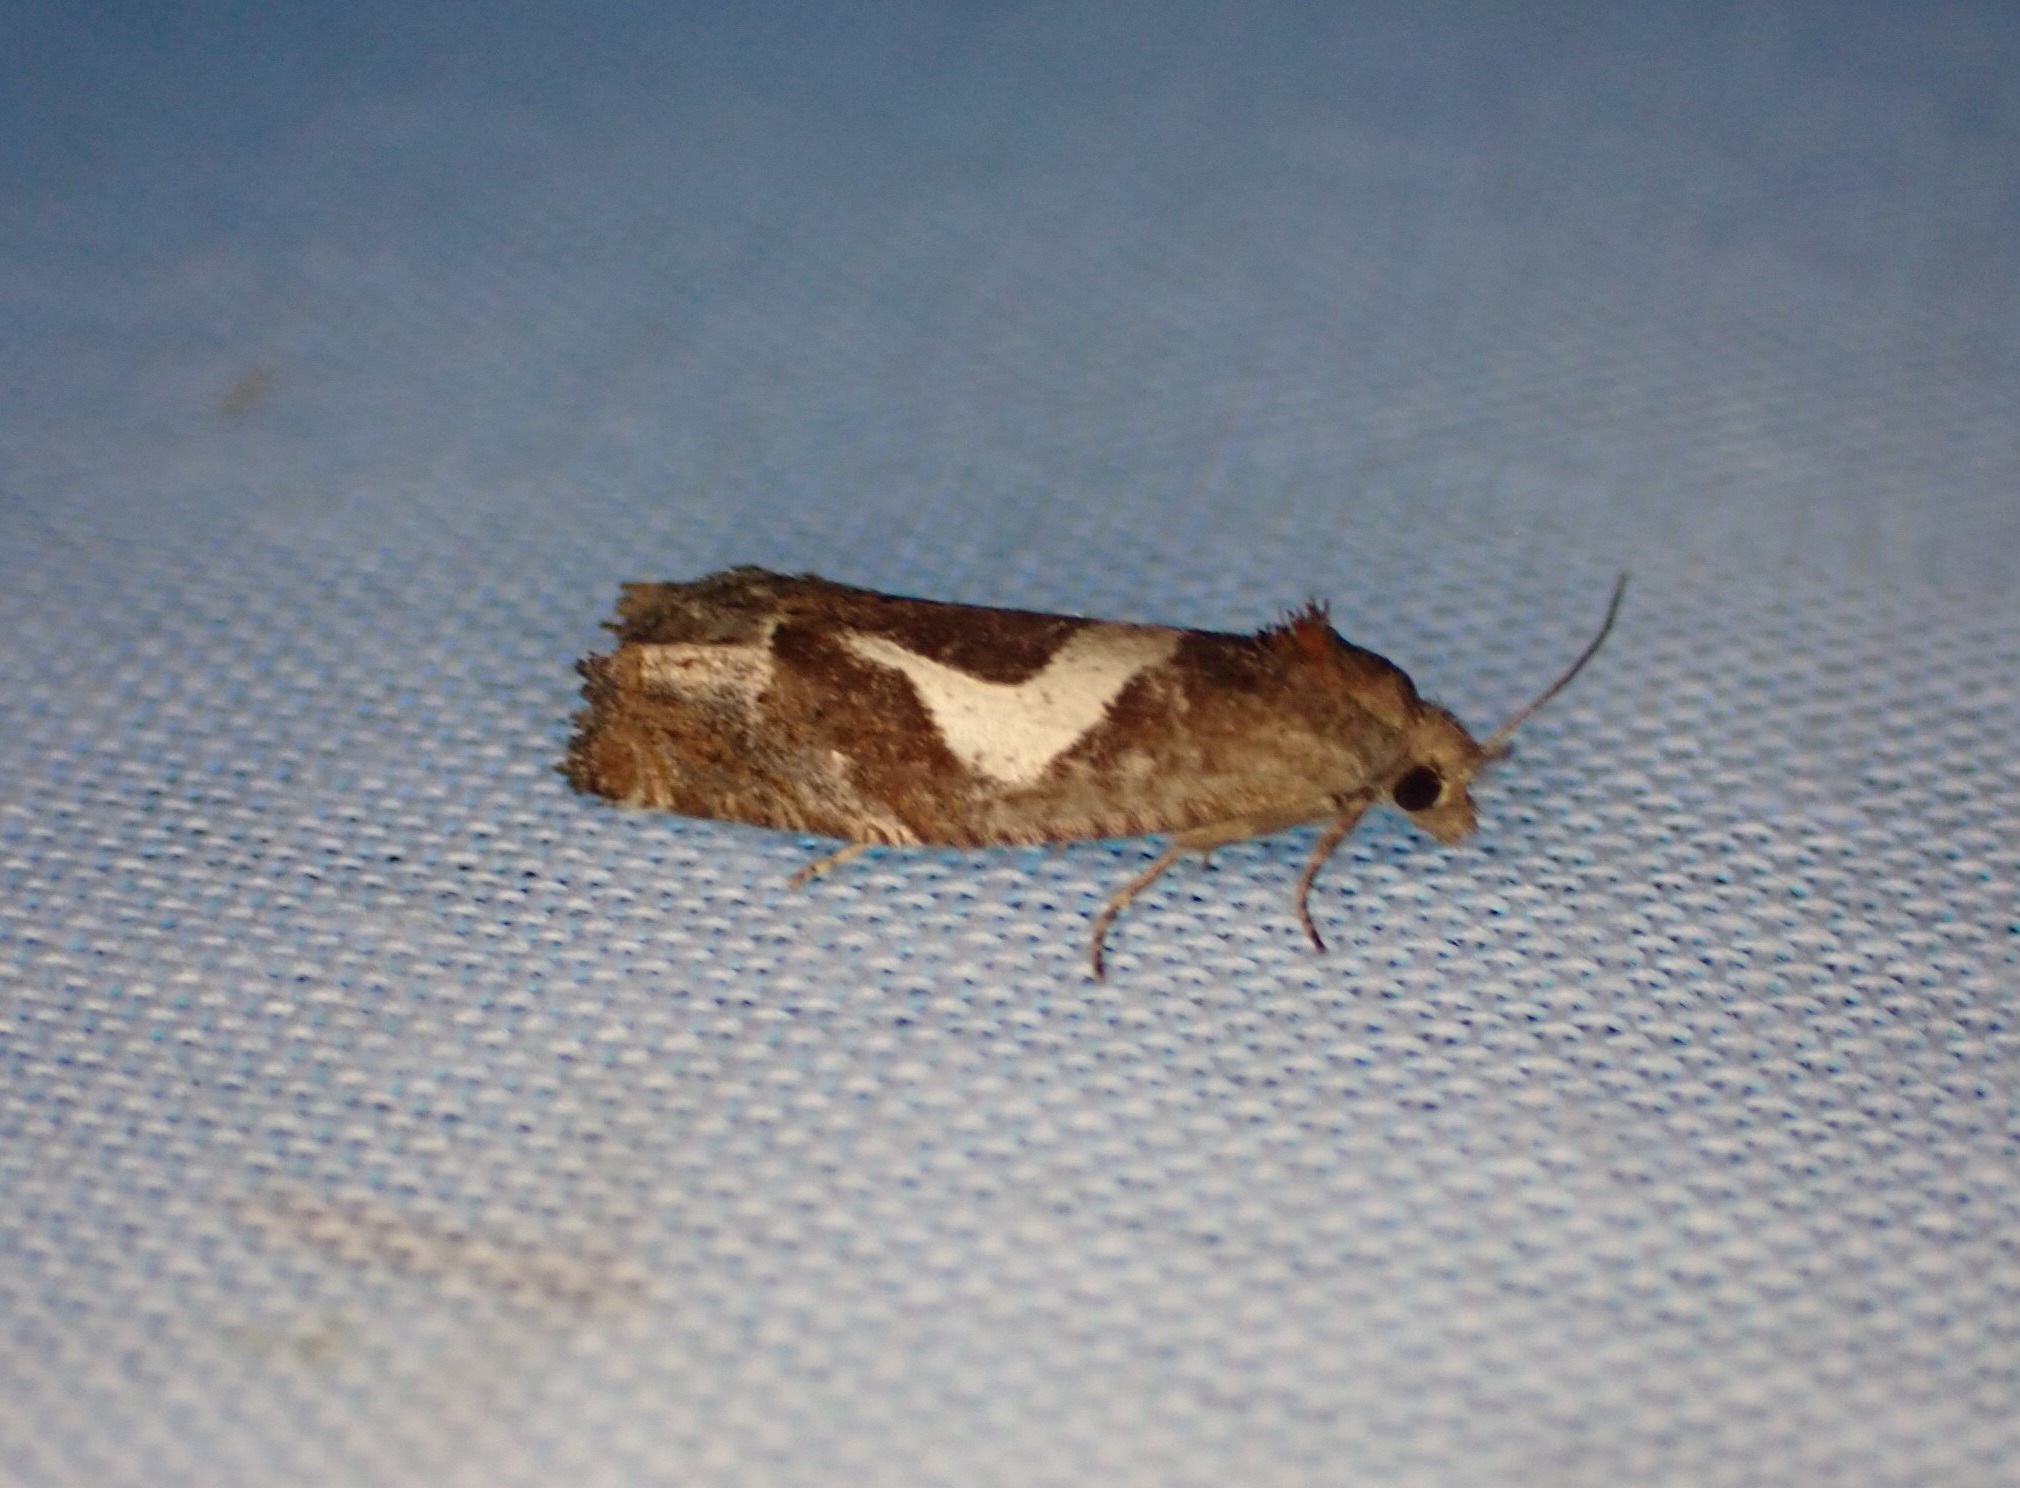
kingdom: Animalia
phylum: Arthropoda
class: Insecta
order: Lepidoptera
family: Tortricidae
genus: Epiblema
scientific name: Epiblema foenella
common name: Gråbynkegallevikler
